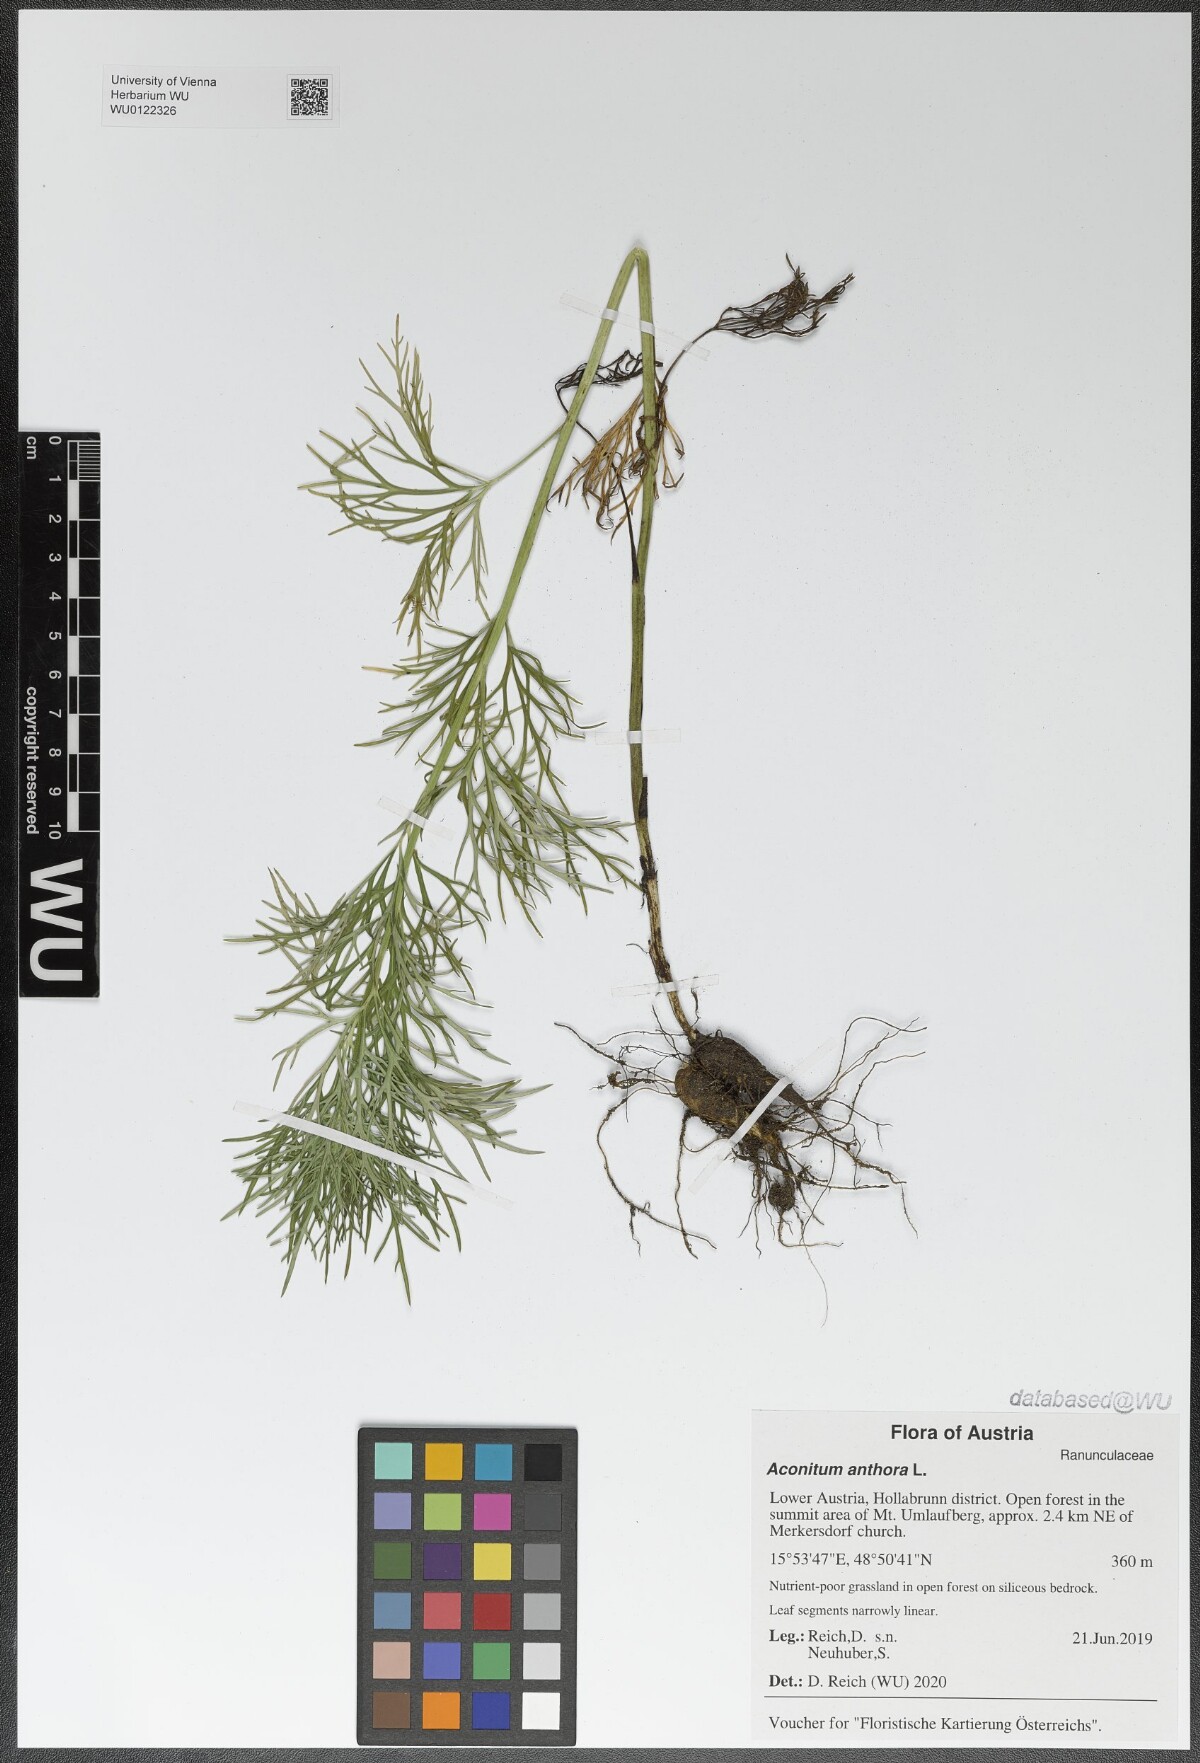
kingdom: Plantae
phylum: Tracheophyta
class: Magnoliopsida
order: Ranunculales
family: Ranunculaceae
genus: Aconitum
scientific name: Aconitum anthora
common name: Yellow monkshood
